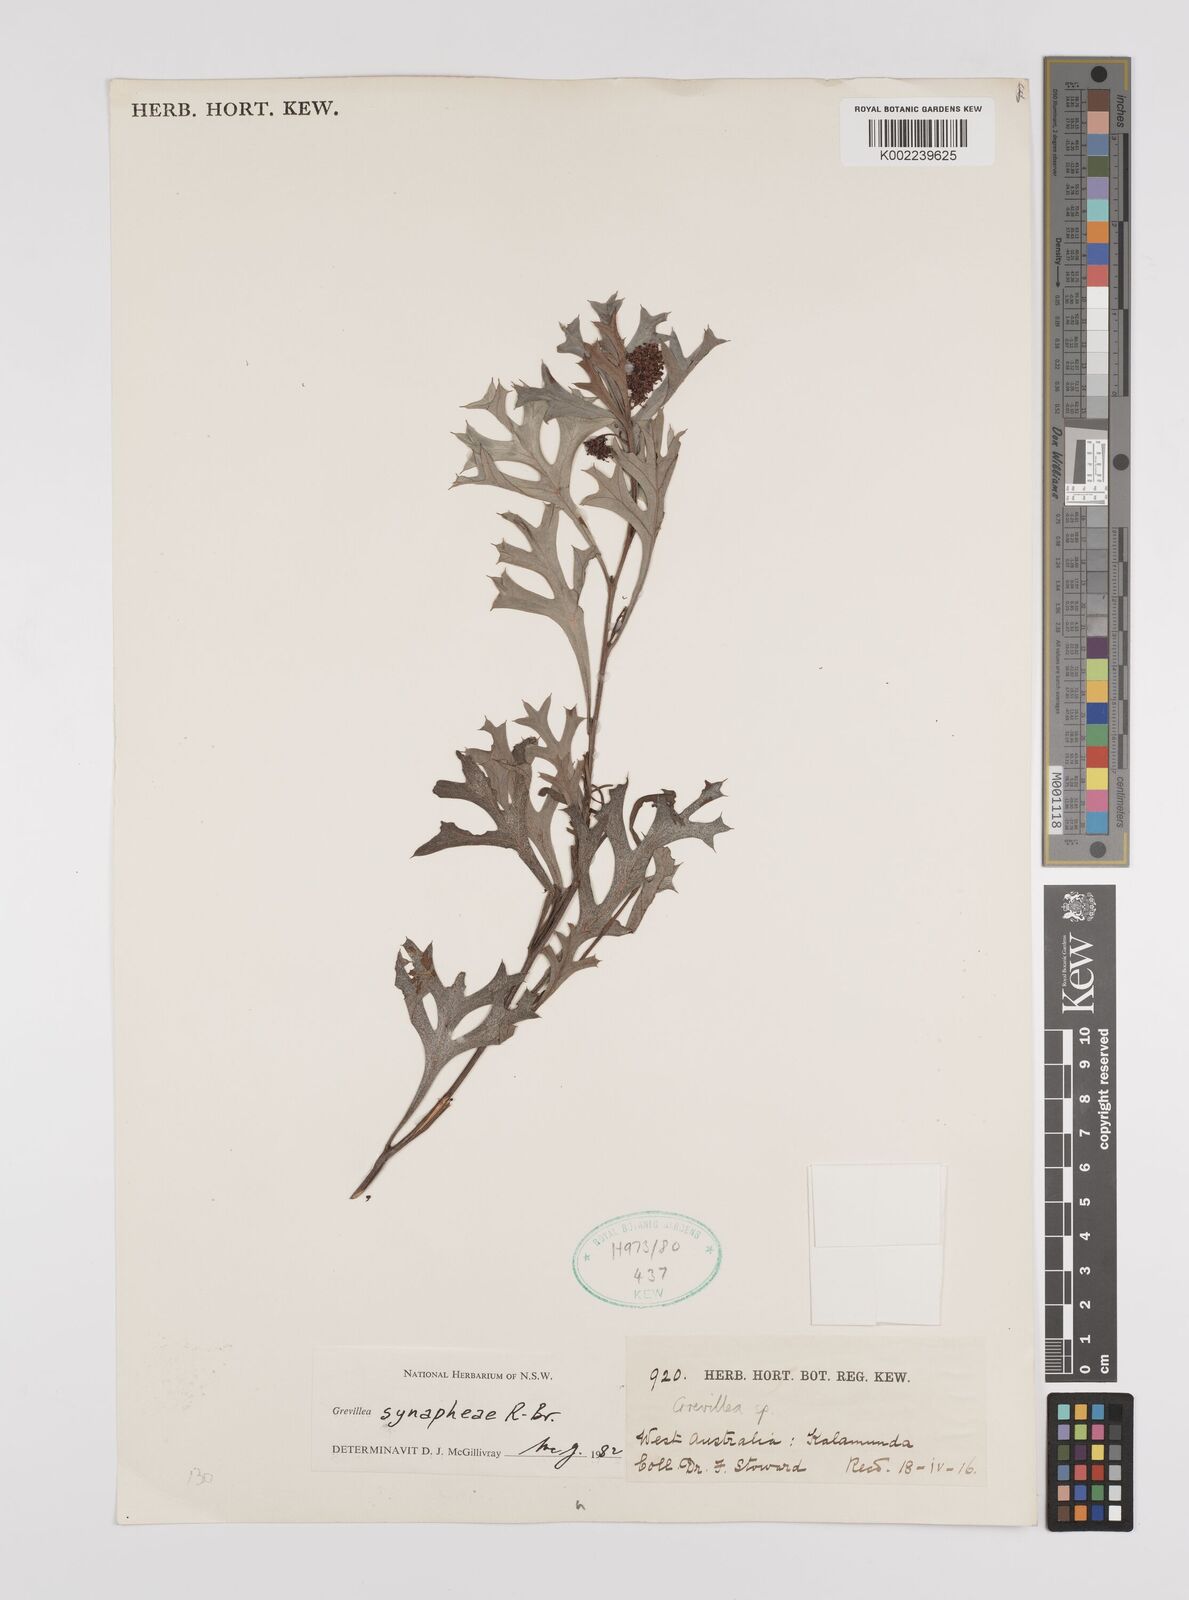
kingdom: Plantae
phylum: Tracheophyta
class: Magnoliopsida
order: Proteales
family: Proteaceae
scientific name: Proteaceae
